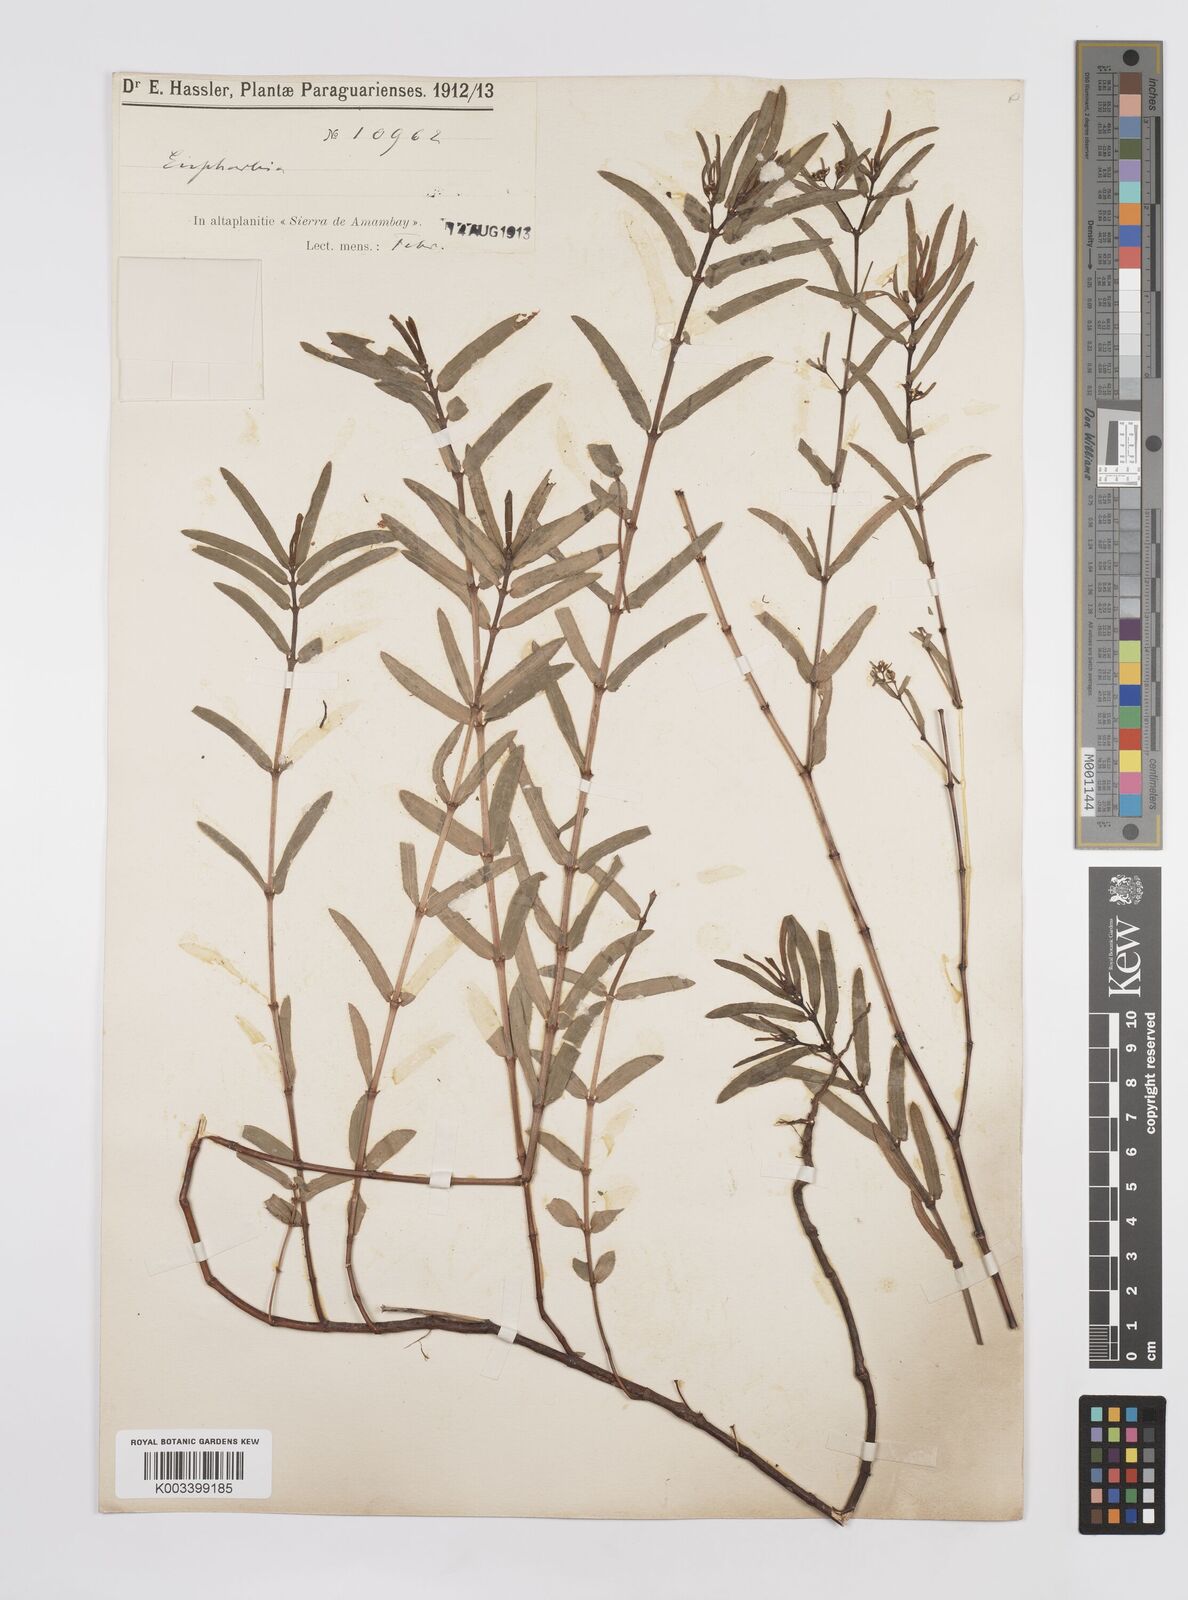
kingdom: Plantae
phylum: Tracheophyta
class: Magnoliopsida
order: Malpighiales
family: Euphorbiaceae
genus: Euphorbia
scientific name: Euphorbia hyssopifolia
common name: Hyssopleaf sandmat
